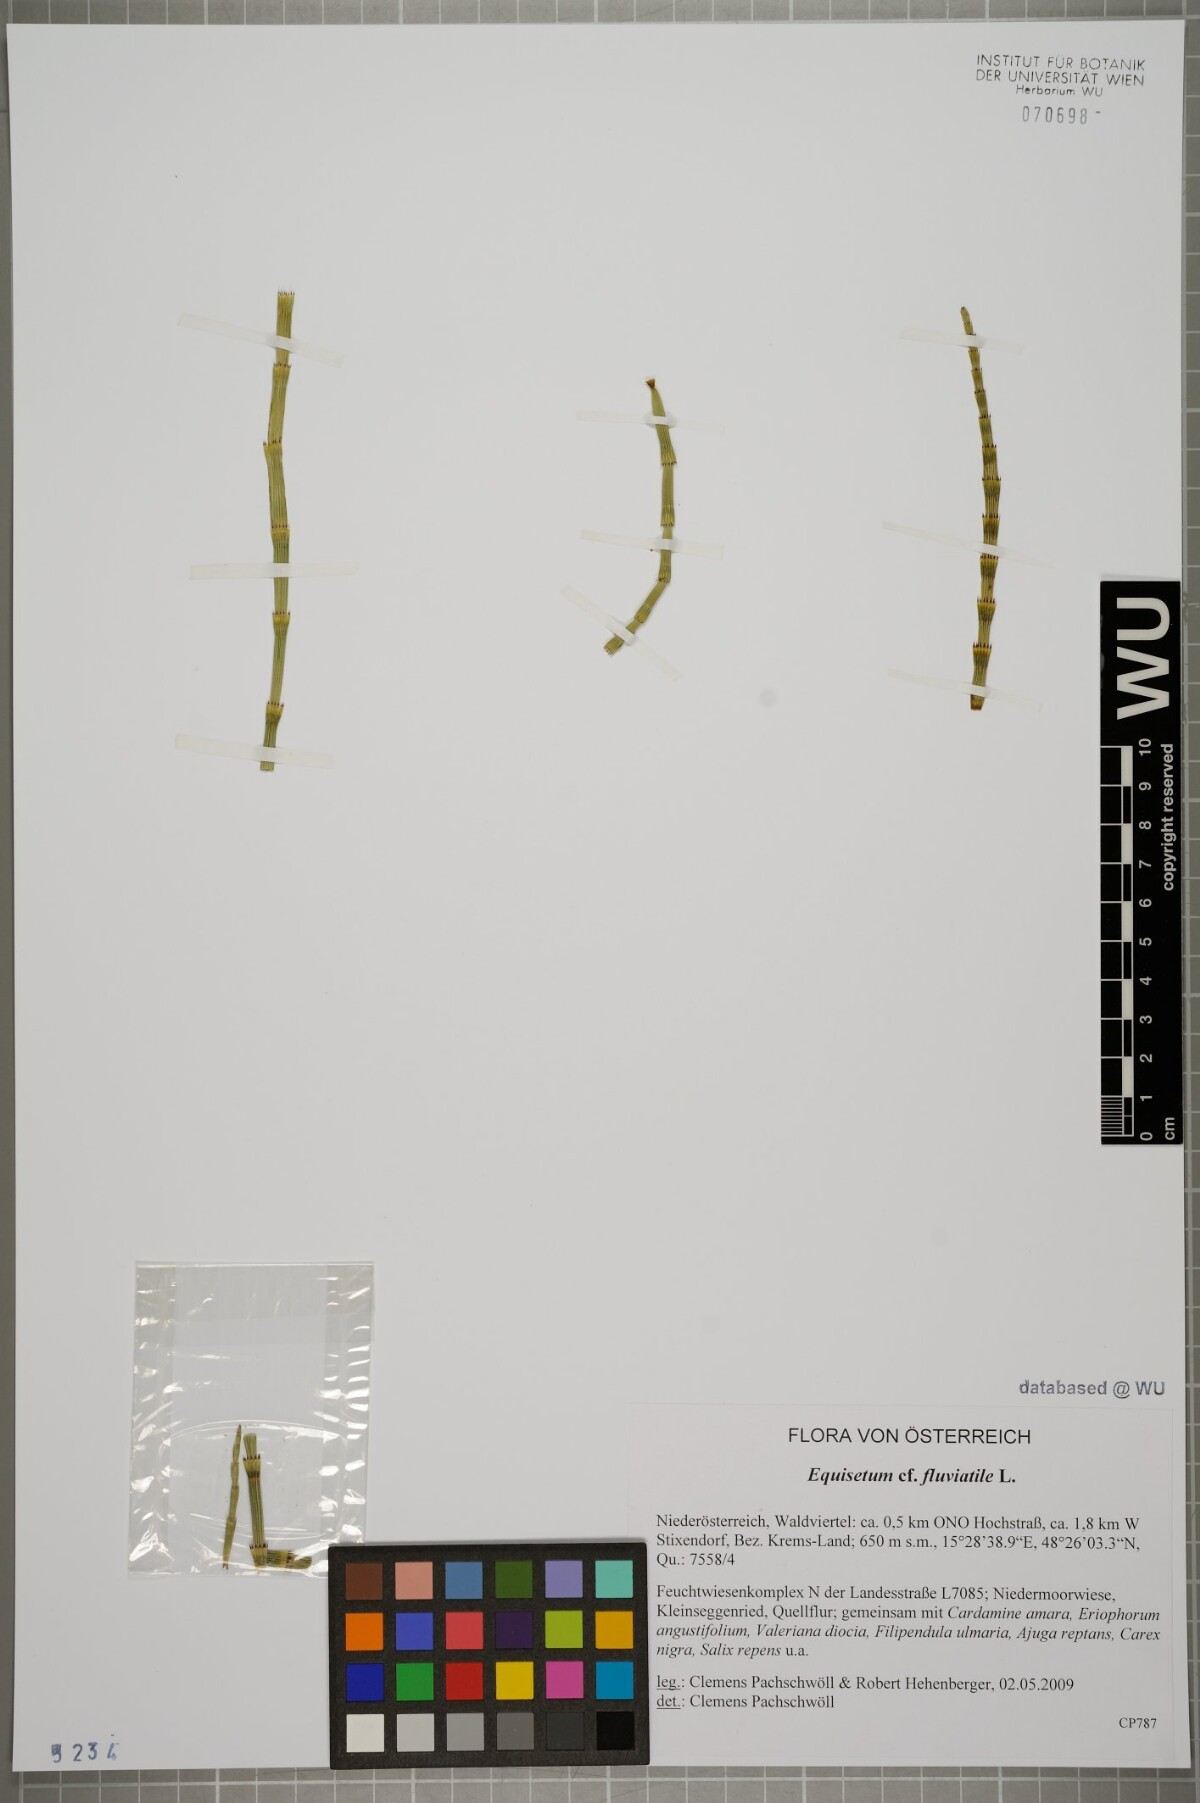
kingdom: Plantae
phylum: Tracheophyta
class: Polypodiopsida
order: Equisetales
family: Equisetaceae
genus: Equisetum
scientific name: Equisetum fluviatile
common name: Water horsetail
